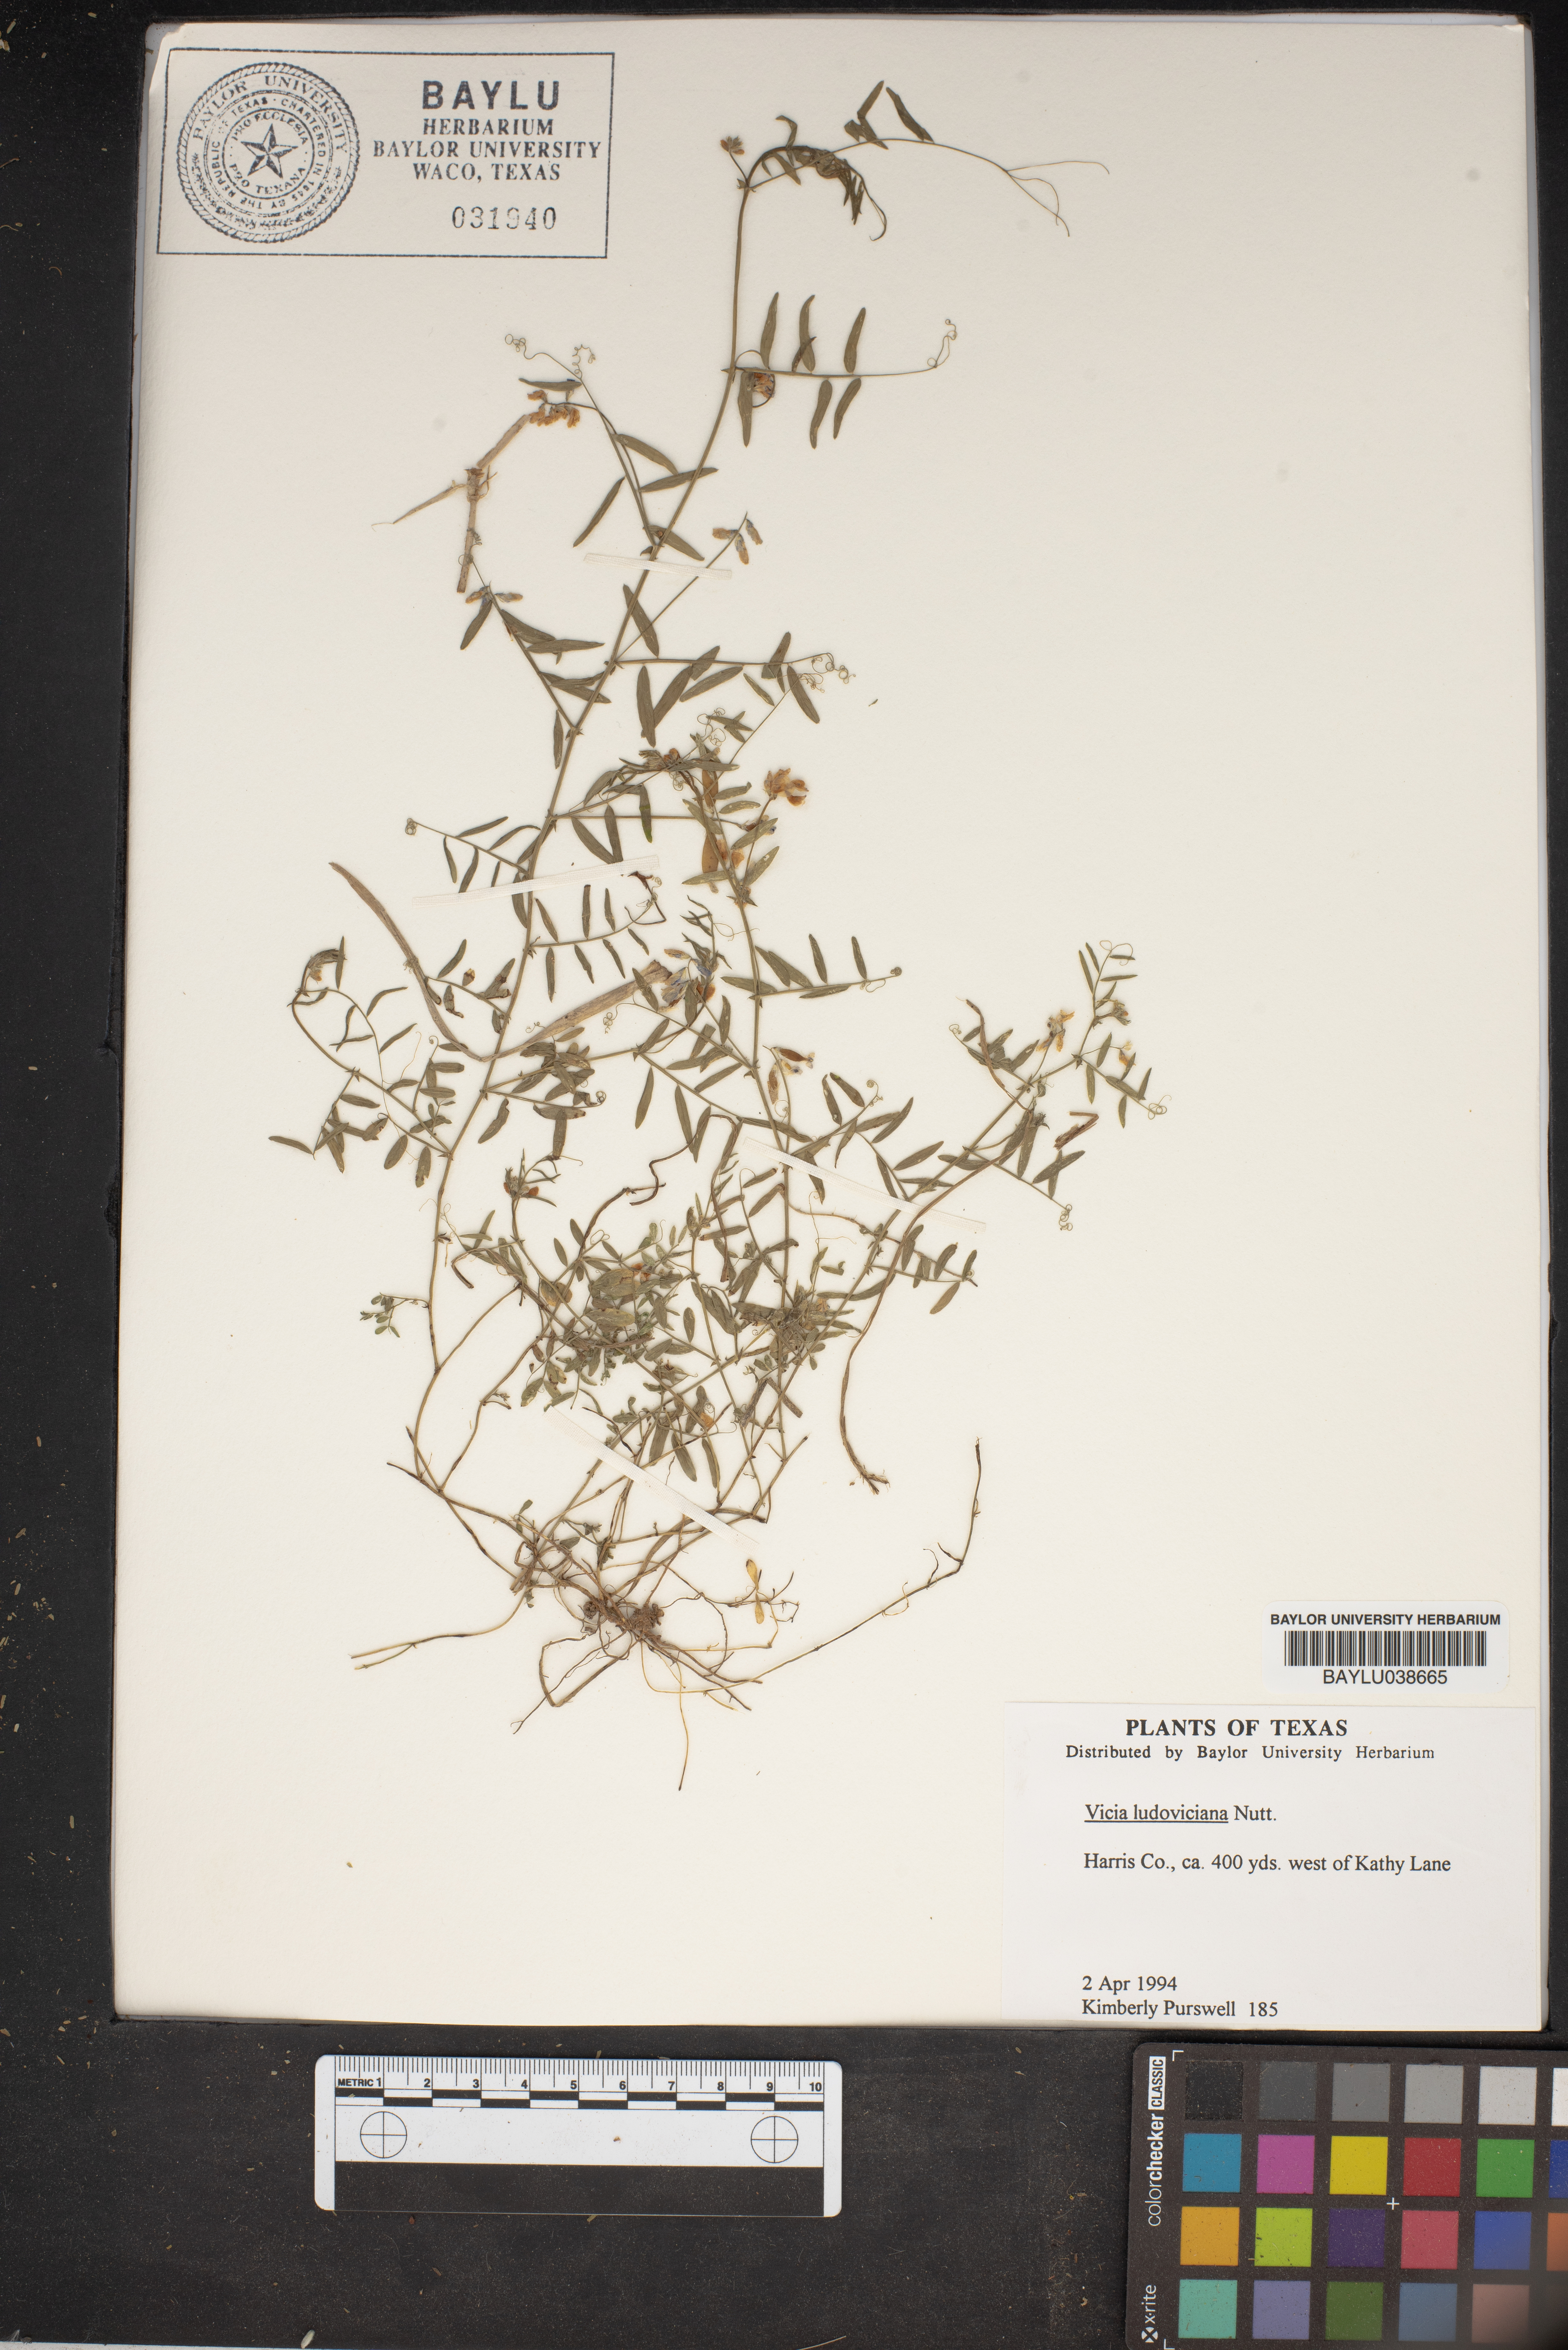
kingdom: Plantae
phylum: Tracheophyta
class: Magnoliopsida
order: Fabales
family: Fabaceae
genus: Vicia
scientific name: Vicia ludoviciana
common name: Louisiana vetch
